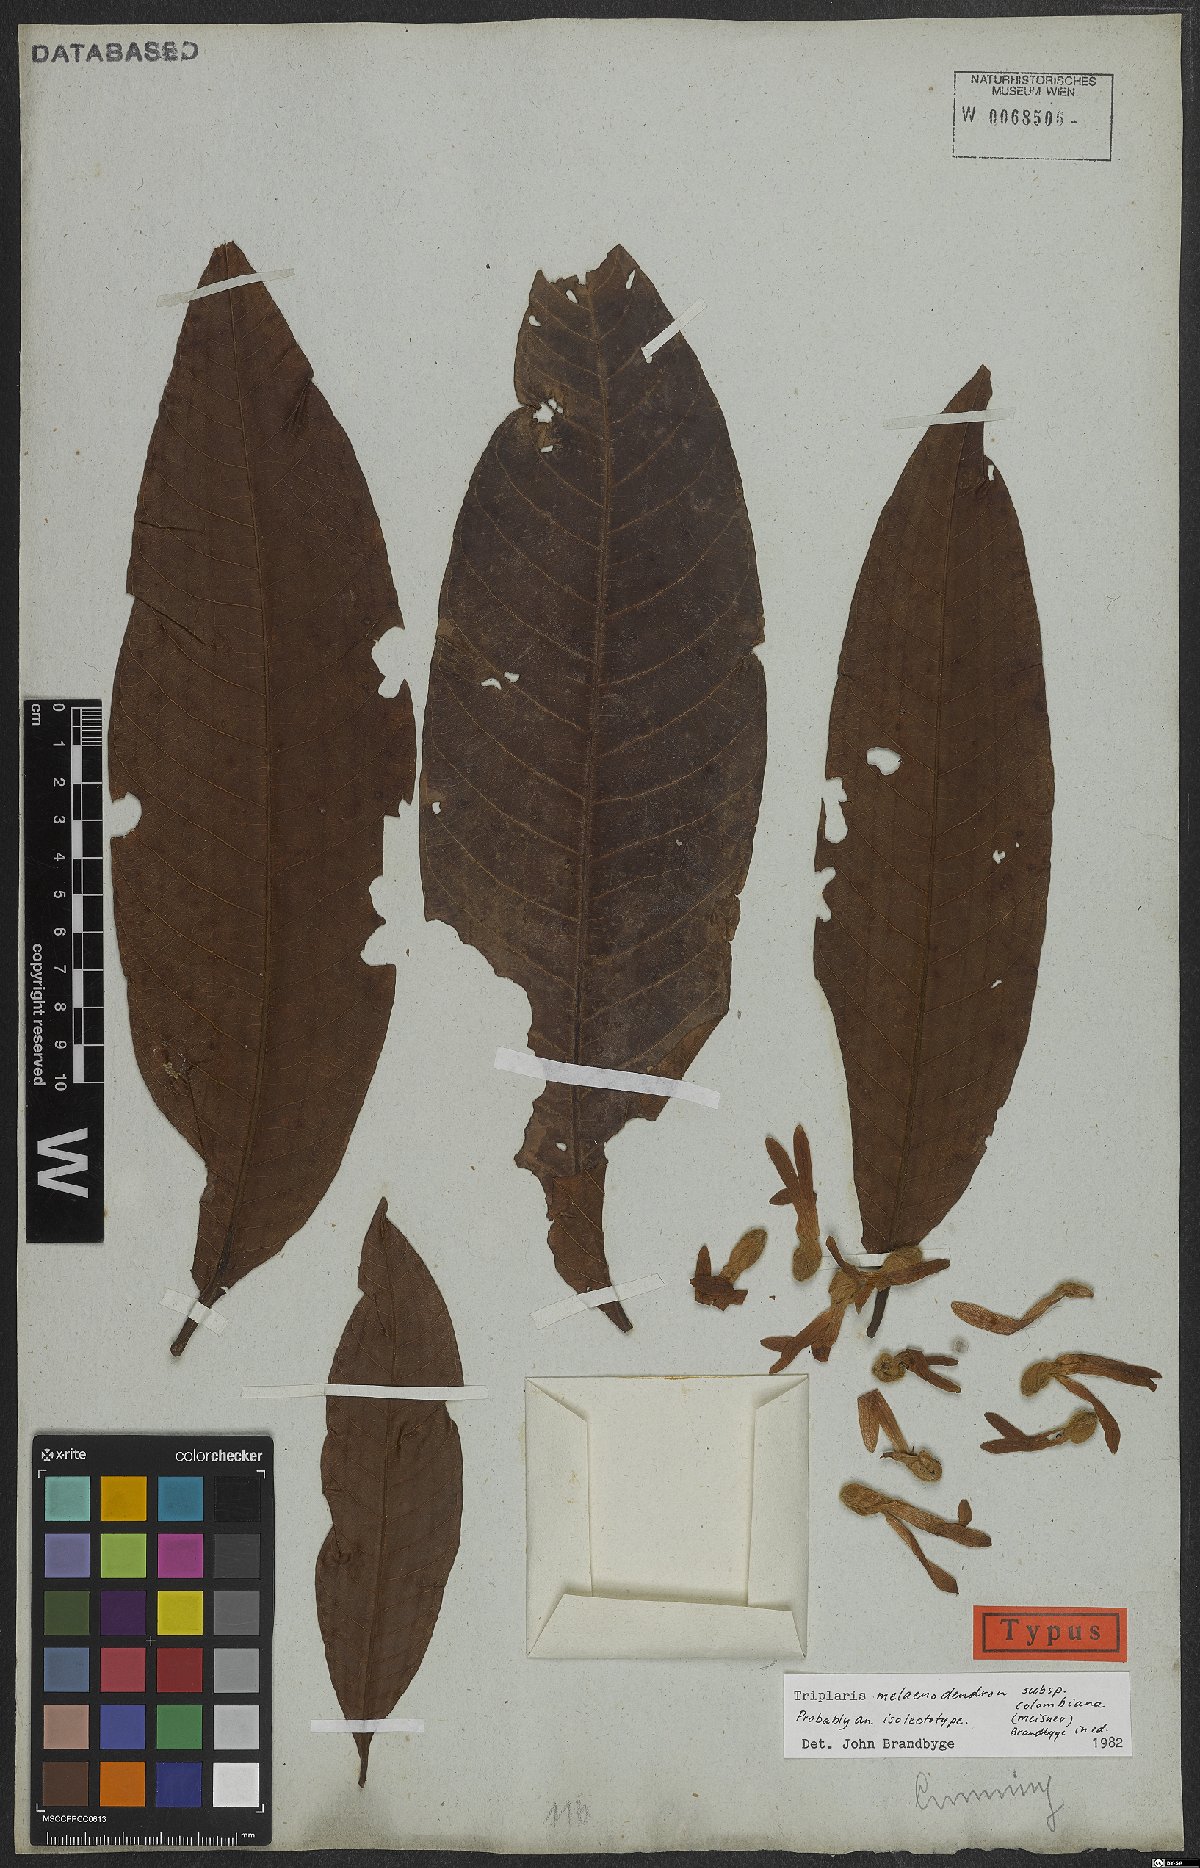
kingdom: Plantae
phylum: Tracheophyta
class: Magnoliopsida
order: Caryophyllales
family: Polygonaceae
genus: Triplaris
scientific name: Triplaris melaenodendron
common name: Long john
